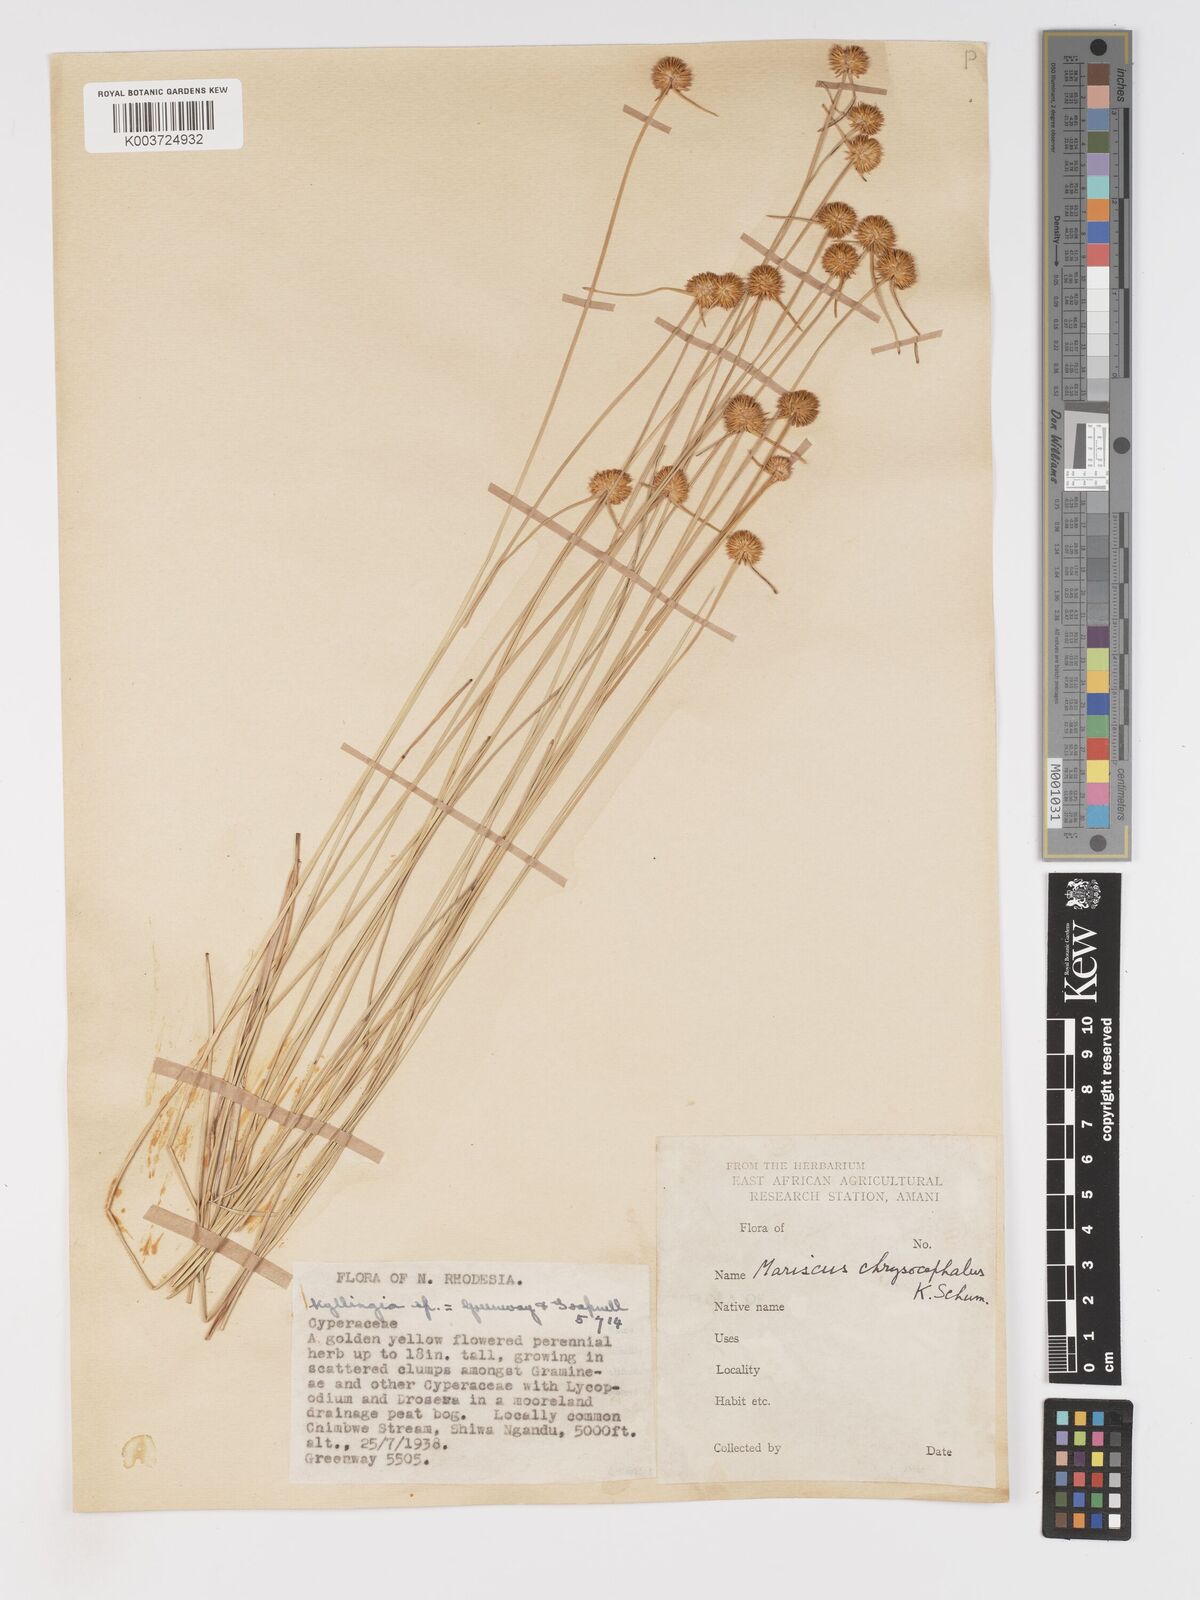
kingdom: Plantae
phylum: Tracheophyta
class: Liliopsida
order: Poales
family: Cyperaceae
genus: Cyperus
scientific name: Cyperus chrysocephalus
